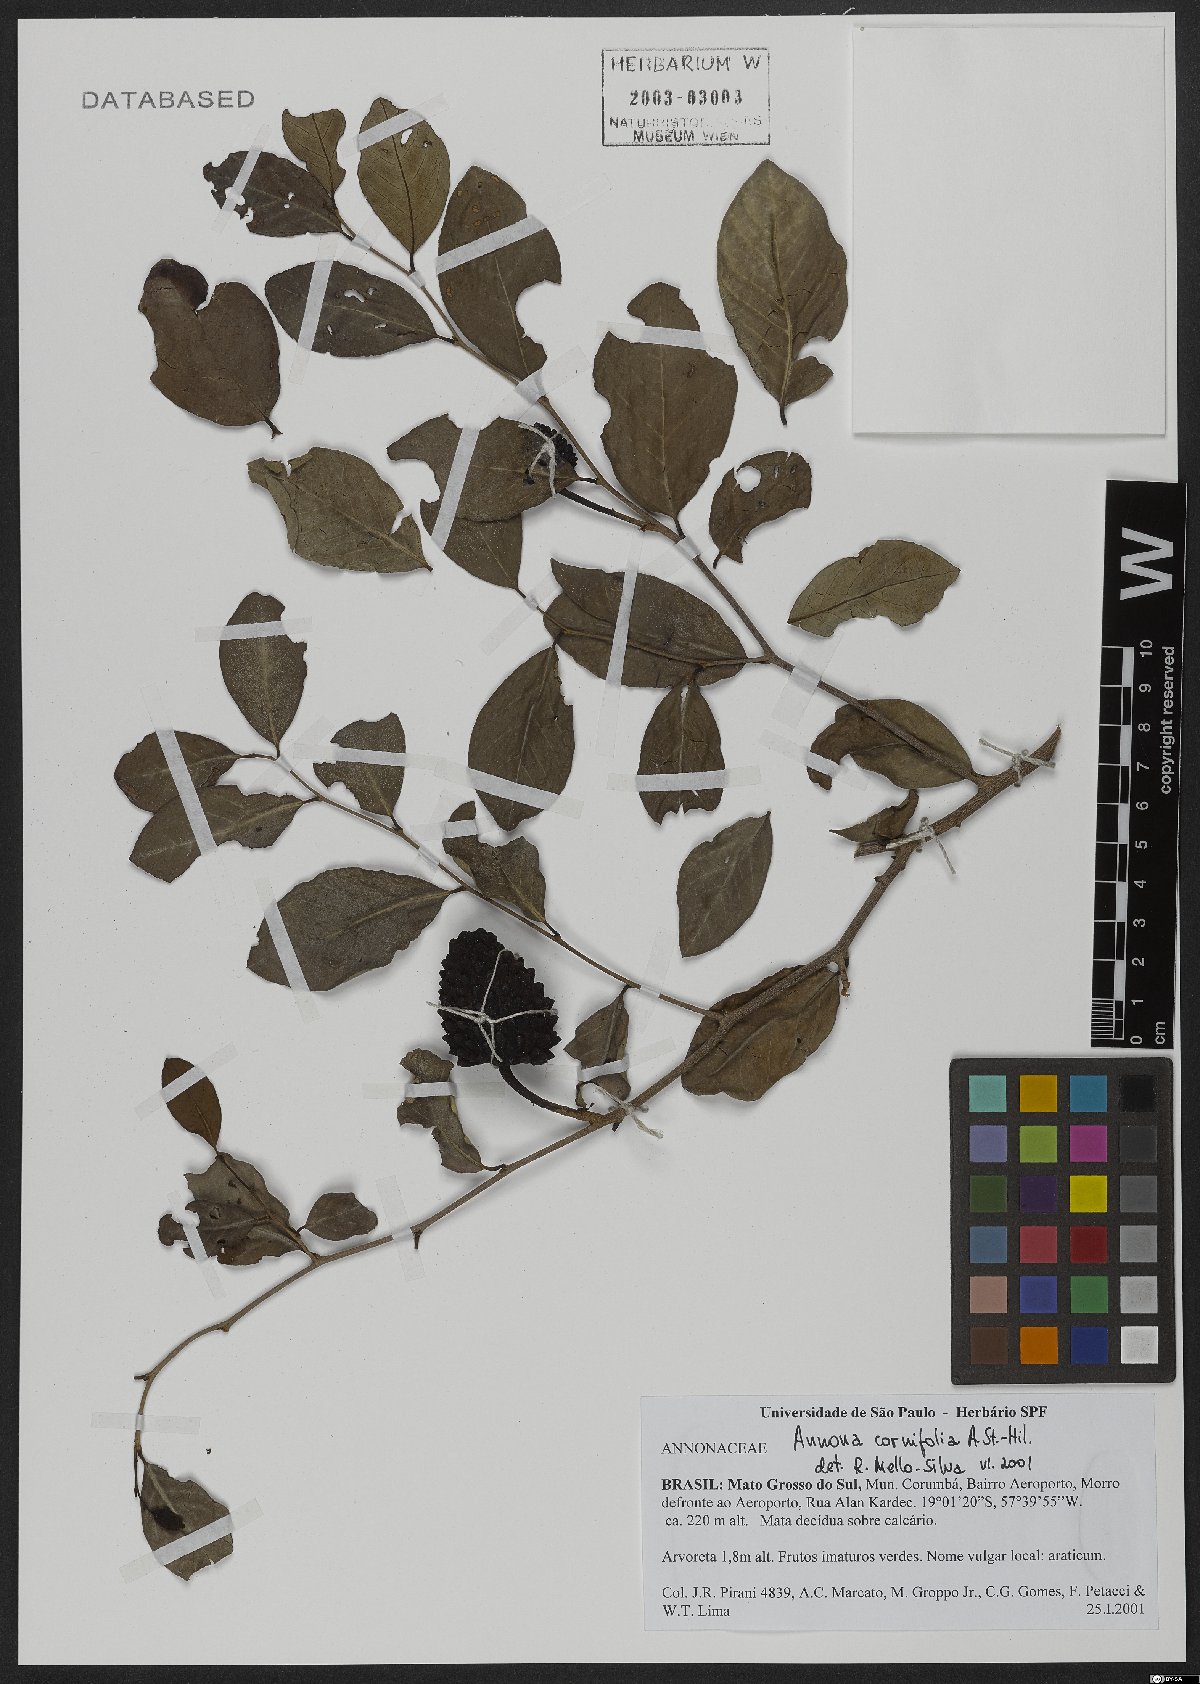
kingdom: Plantae
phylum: Tracheophyta
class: Magnoliopsida
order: Magnoliales
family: Annonaceae
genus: Annona
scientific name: Annona cornifolia
